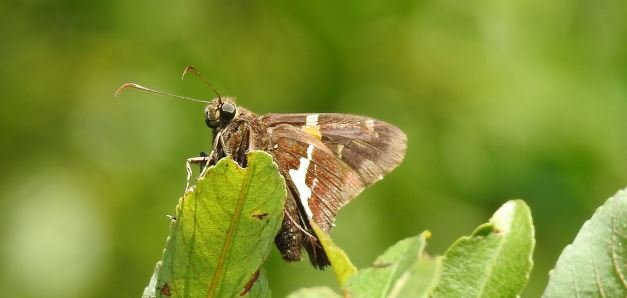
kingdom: Animalia
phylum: Arthropoda
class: Insecta
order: Lepidoptera
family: Hesperiidae
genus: Epargyreus
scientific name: Epargyreus clarus
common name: Silver-spotted Skipper
